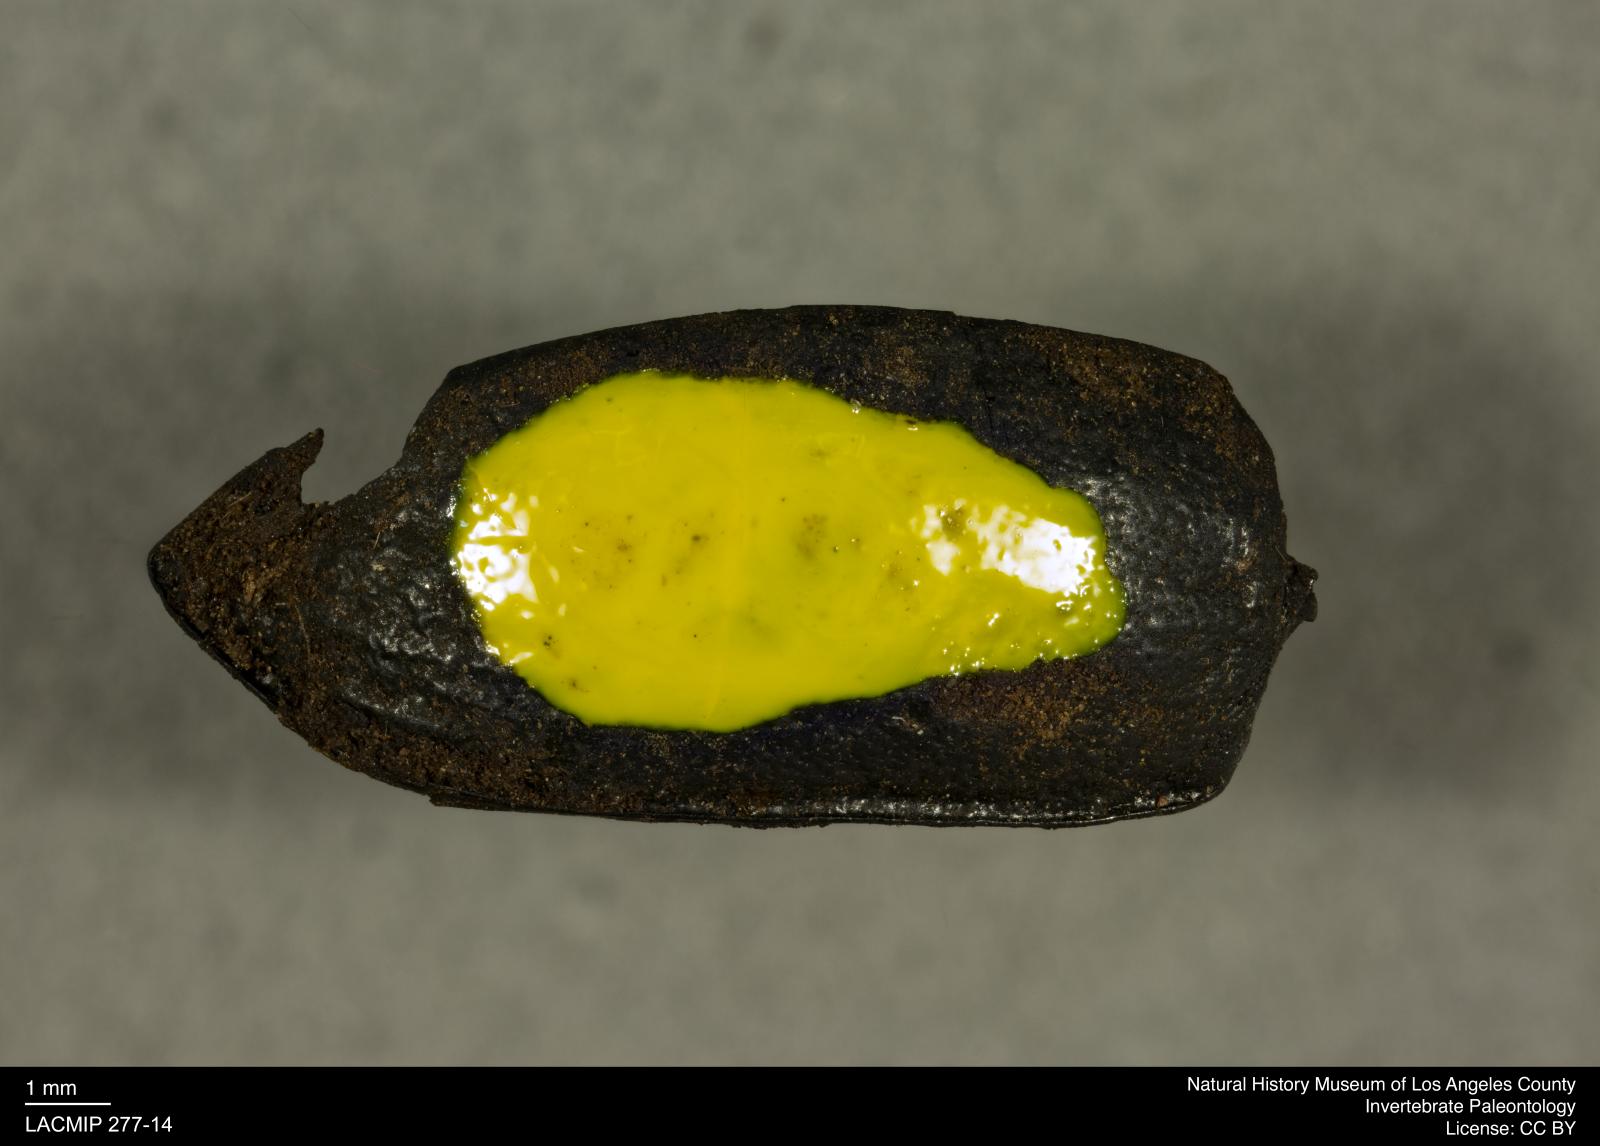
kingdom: Animalia
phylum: Arthropoda
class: Insecta
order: Coleoptera
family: Tenebrionidae
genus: Coniontis
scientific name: Coniontis abdominalis
